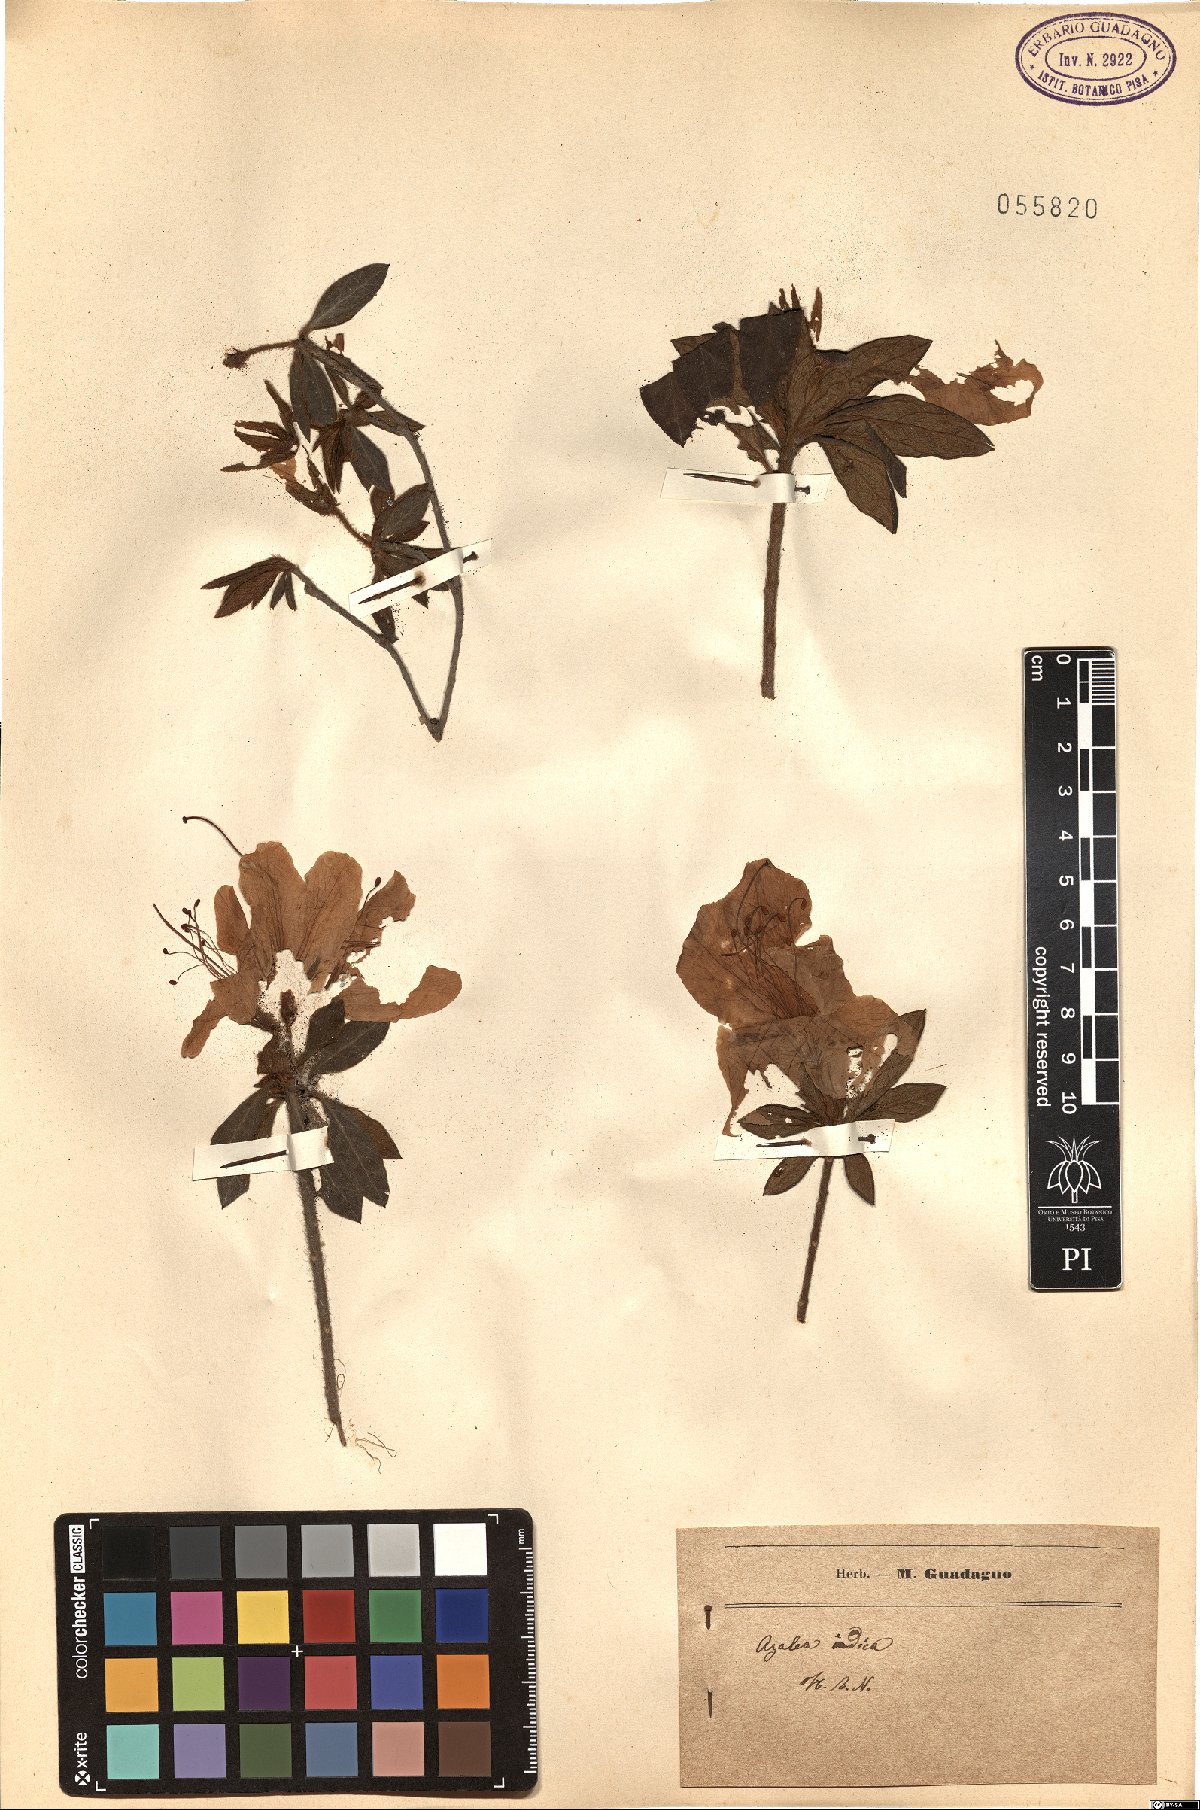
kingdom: Plantae
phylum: Tracheophyta
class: Magnoliopsida
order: Ericales
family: Ericaceae
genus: Rhododendron
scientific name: Rhododendron indicum
